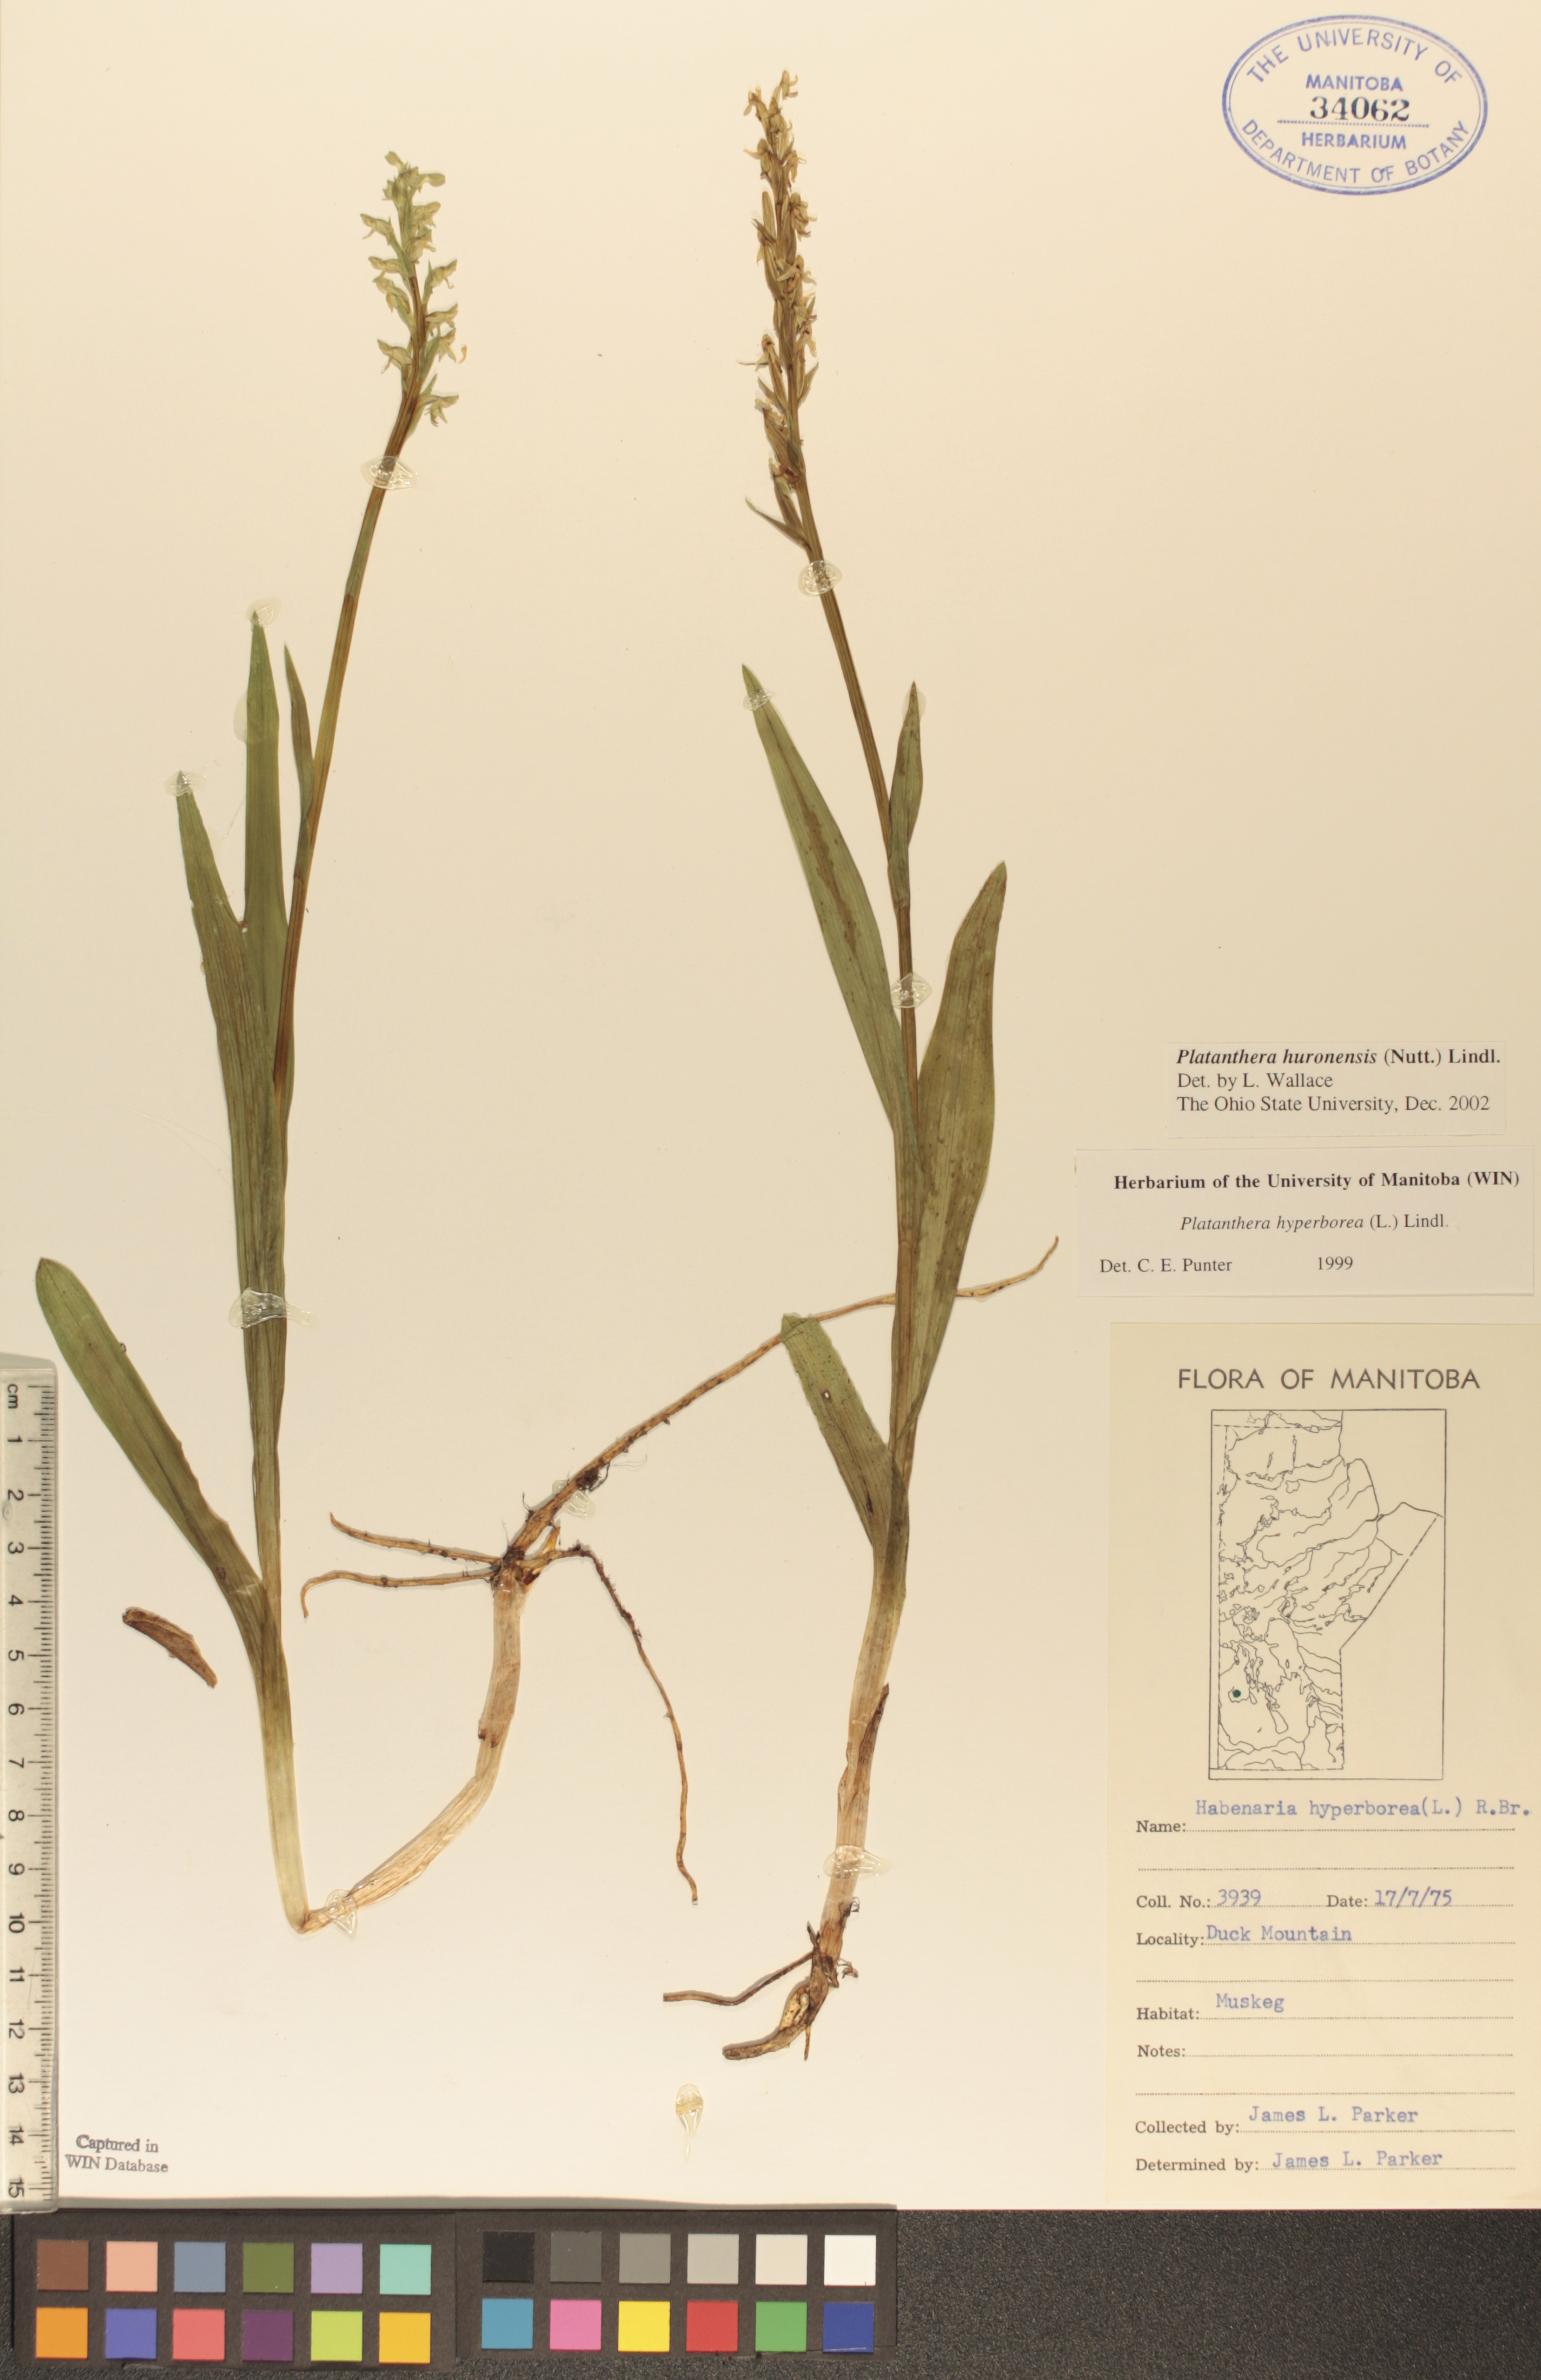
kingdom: Plantae
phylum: Tracheophyta
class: Liliopsida
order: Asparagales
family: Orchidaceae
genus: Platanthera
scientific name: Platanthera huronensis
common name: Fragrant green orchid
